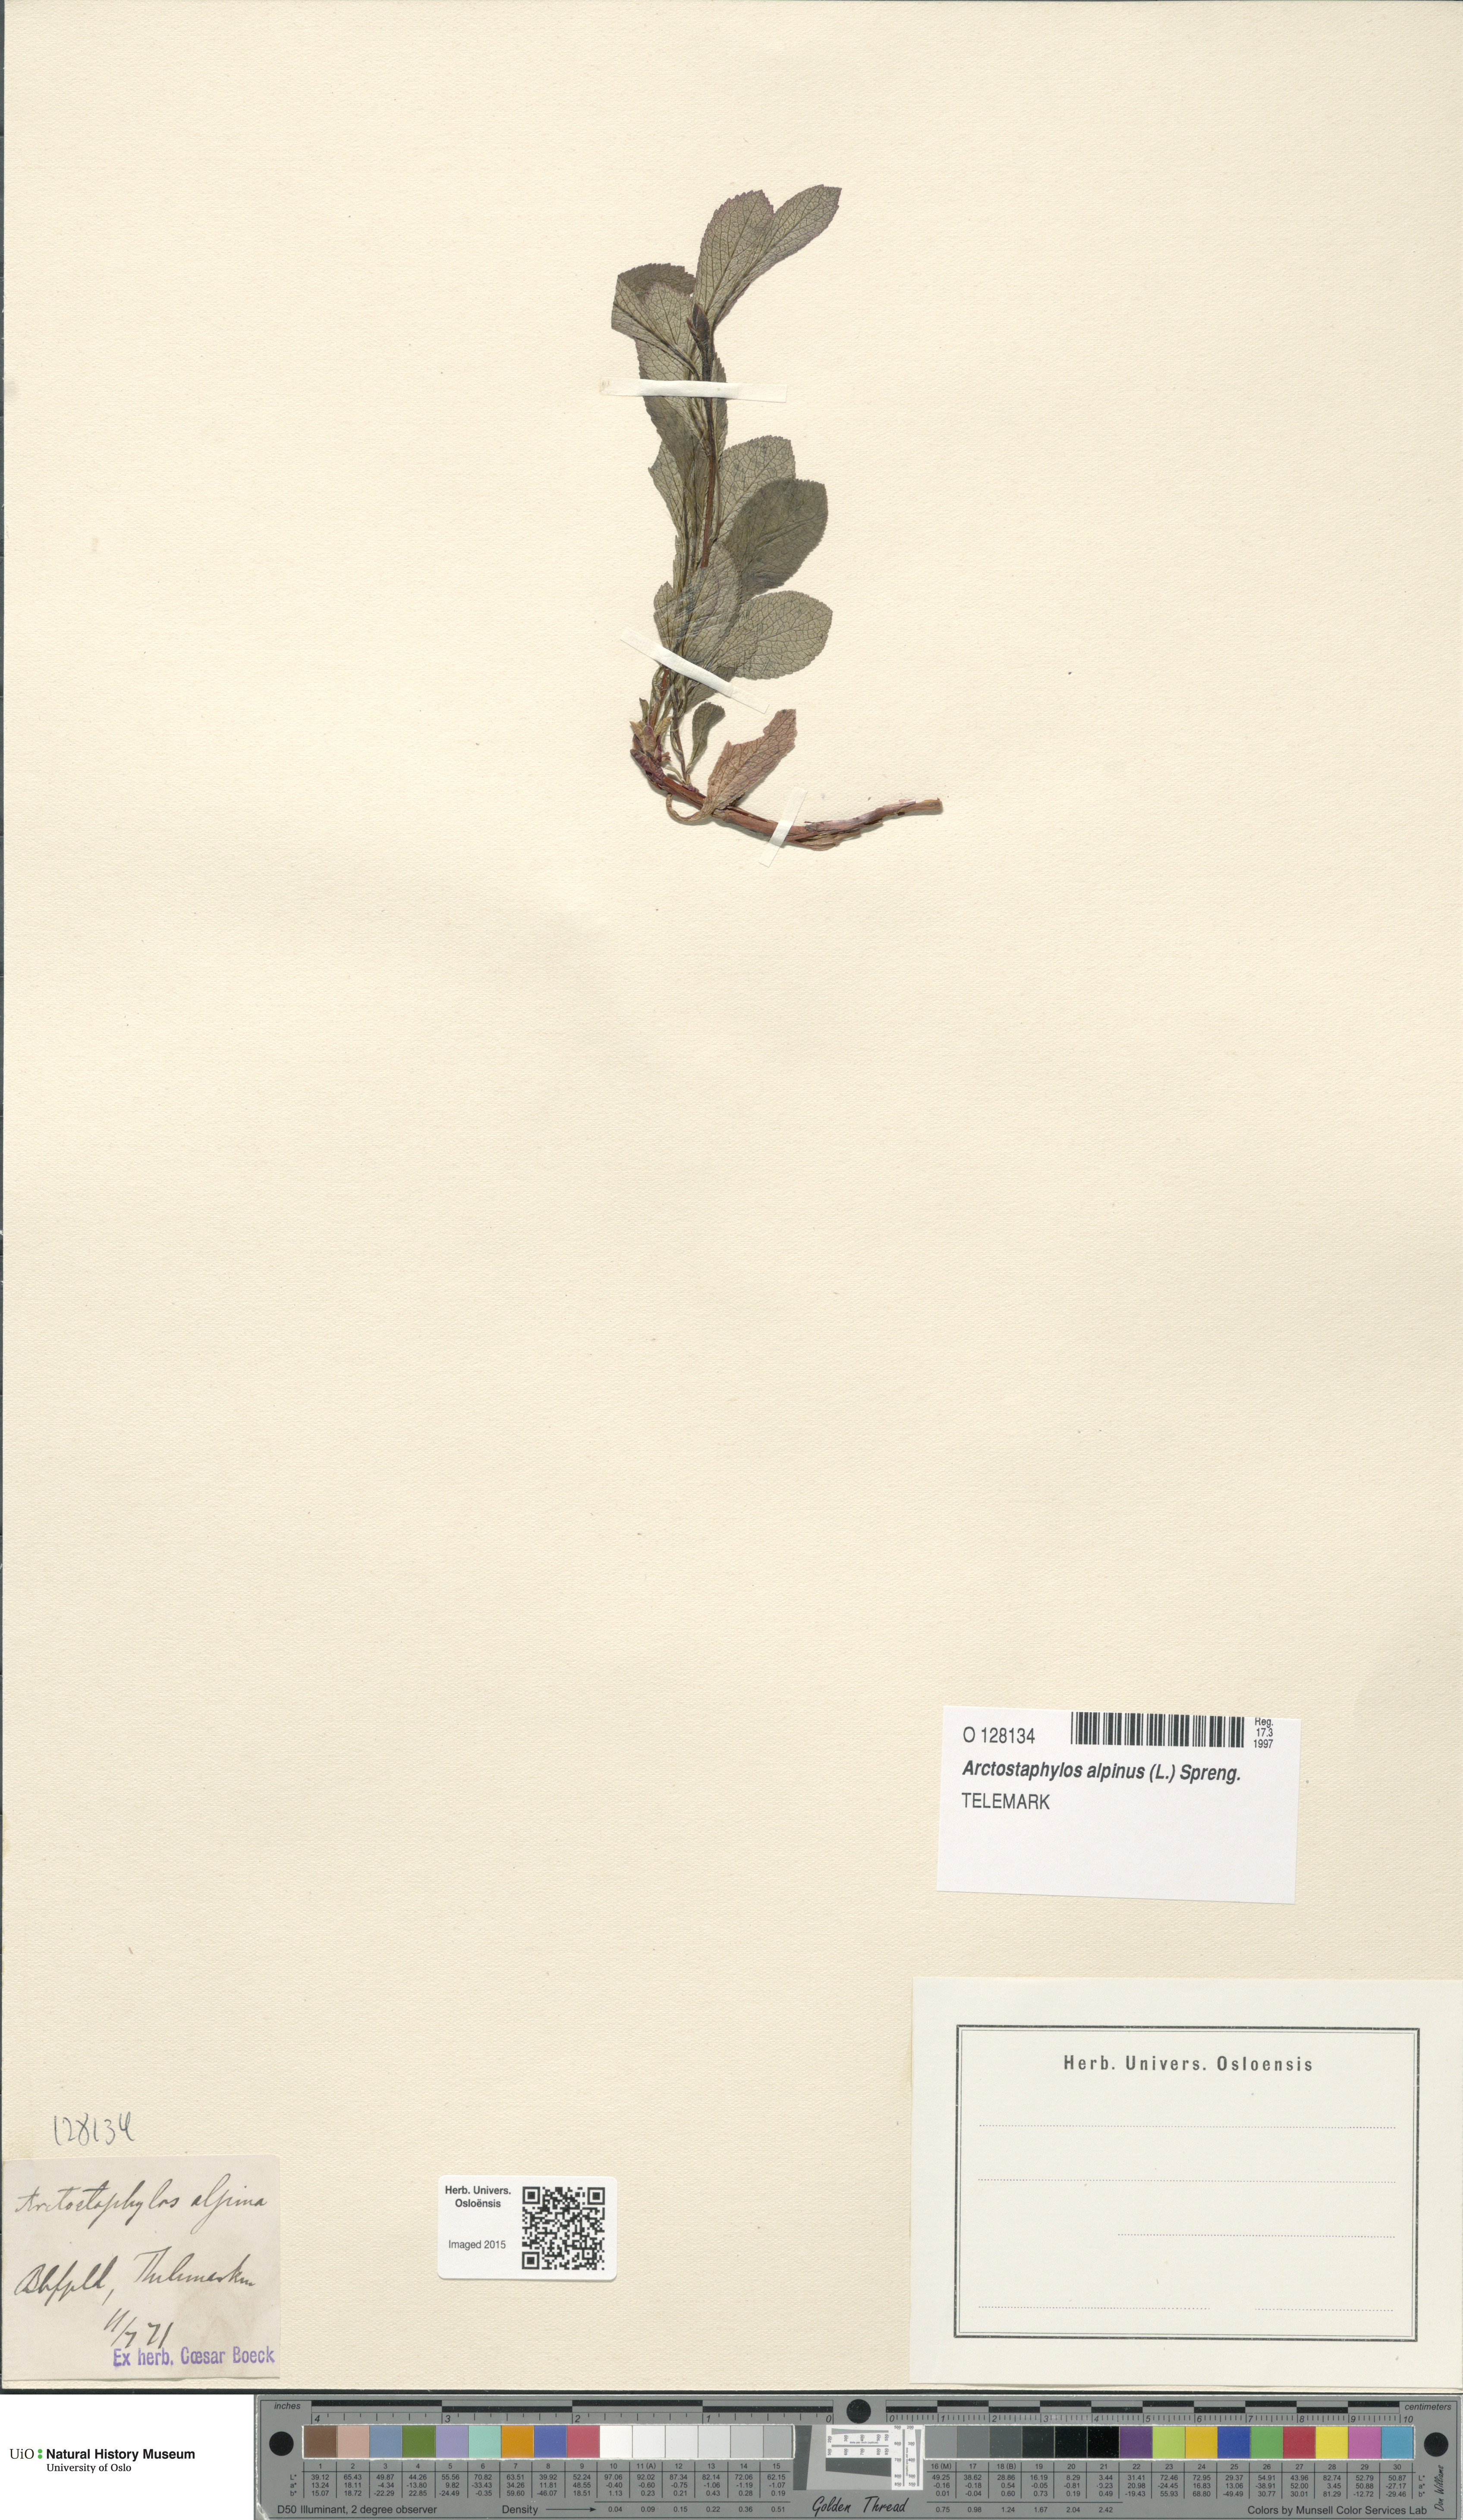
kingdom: Plantae
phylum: Tracheophyta
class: Magnoliopsida
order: Ericales
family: Ericaceae
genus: Arctostaphylos
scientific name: Arctostaphylos alpinus
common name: Alpine bearberry
